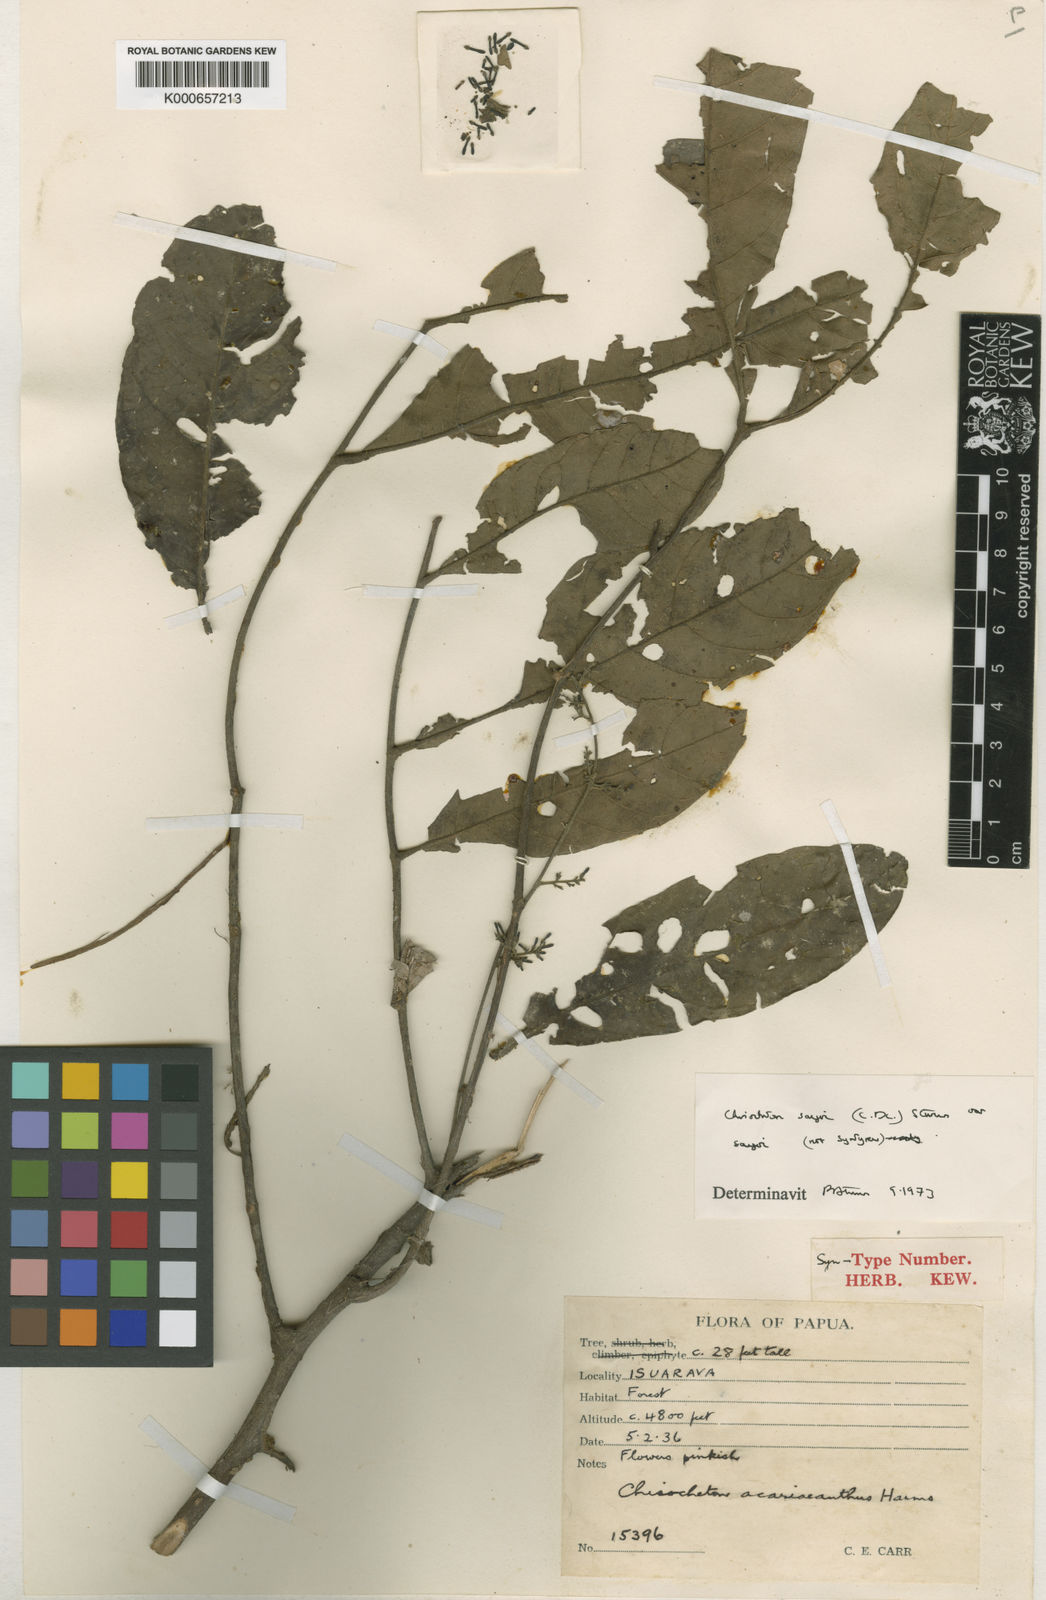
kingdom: Plantae
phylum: Tracheophyta
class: Magnoliopsida
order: Sapindales
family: Meliaceae
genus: Chisocheton
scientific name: Chisocheton sayeri
